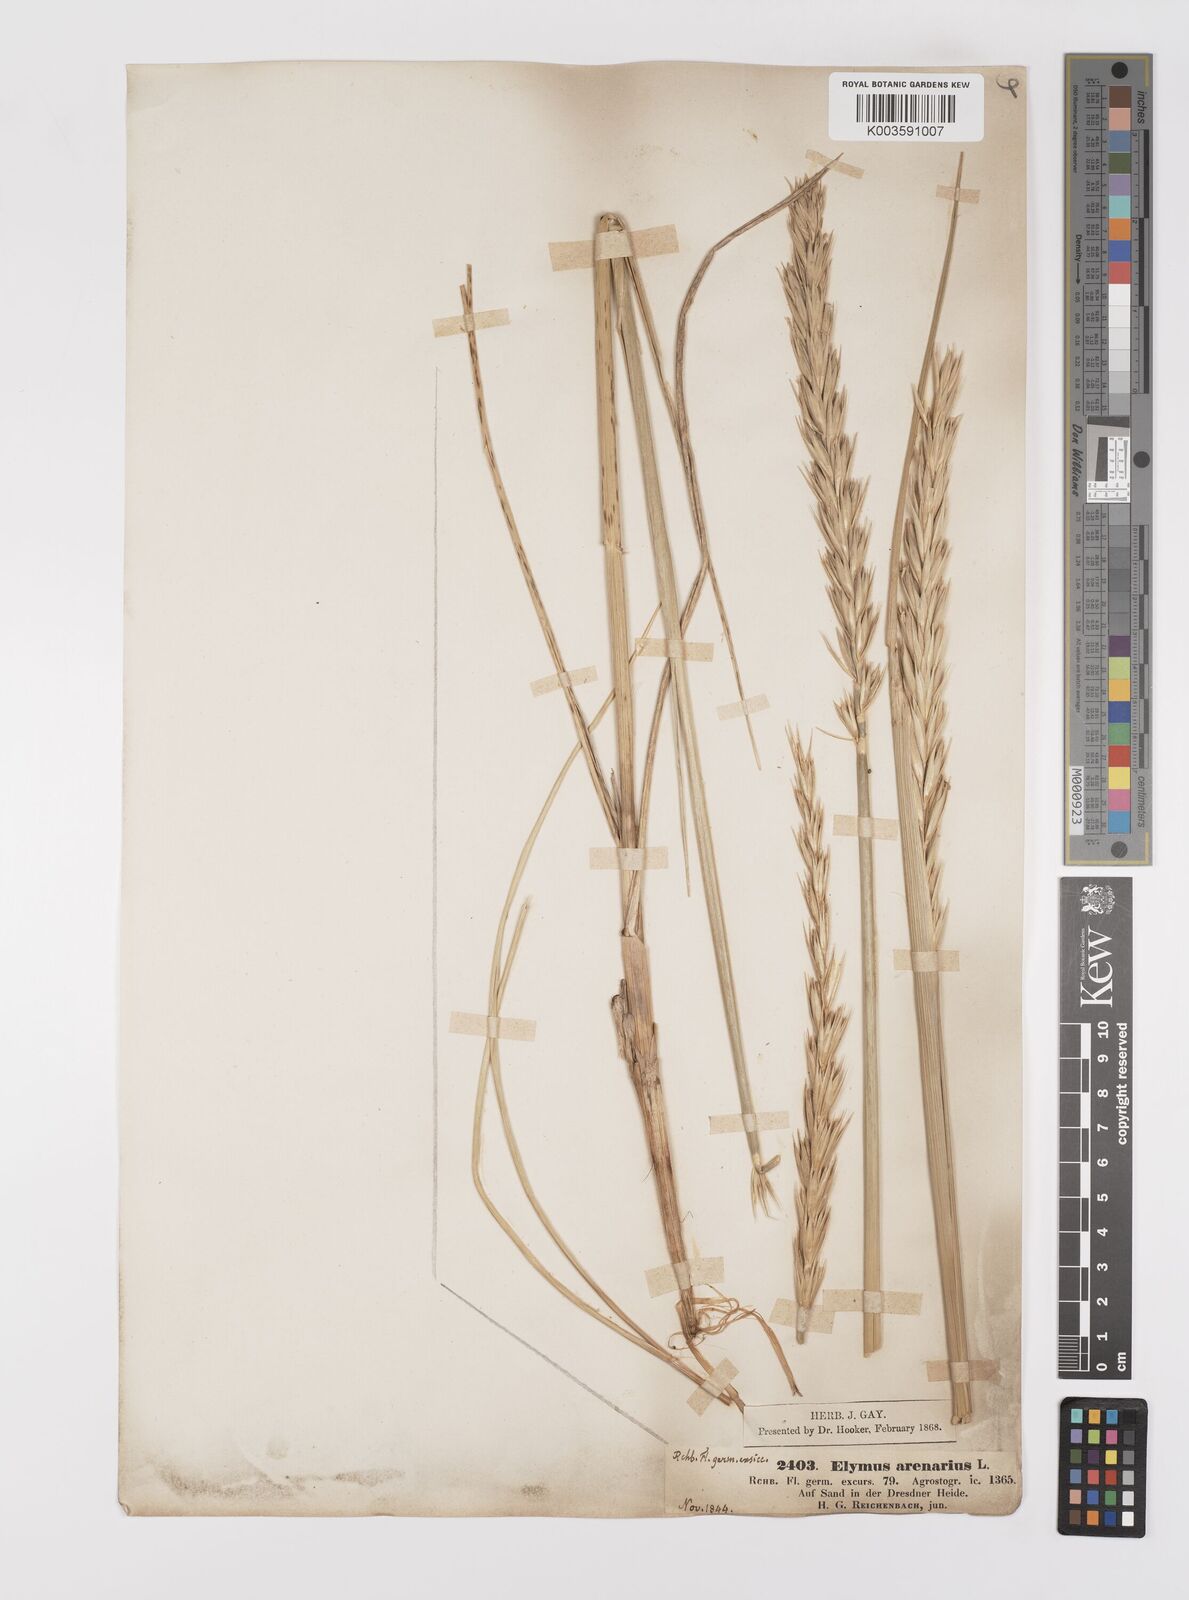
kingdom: Plantae
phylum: Tracheophyta
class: Liliopsida
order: Poales
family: Poaceae
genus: Leymus
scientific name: Leymus arenarius
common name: Lyme-grass
